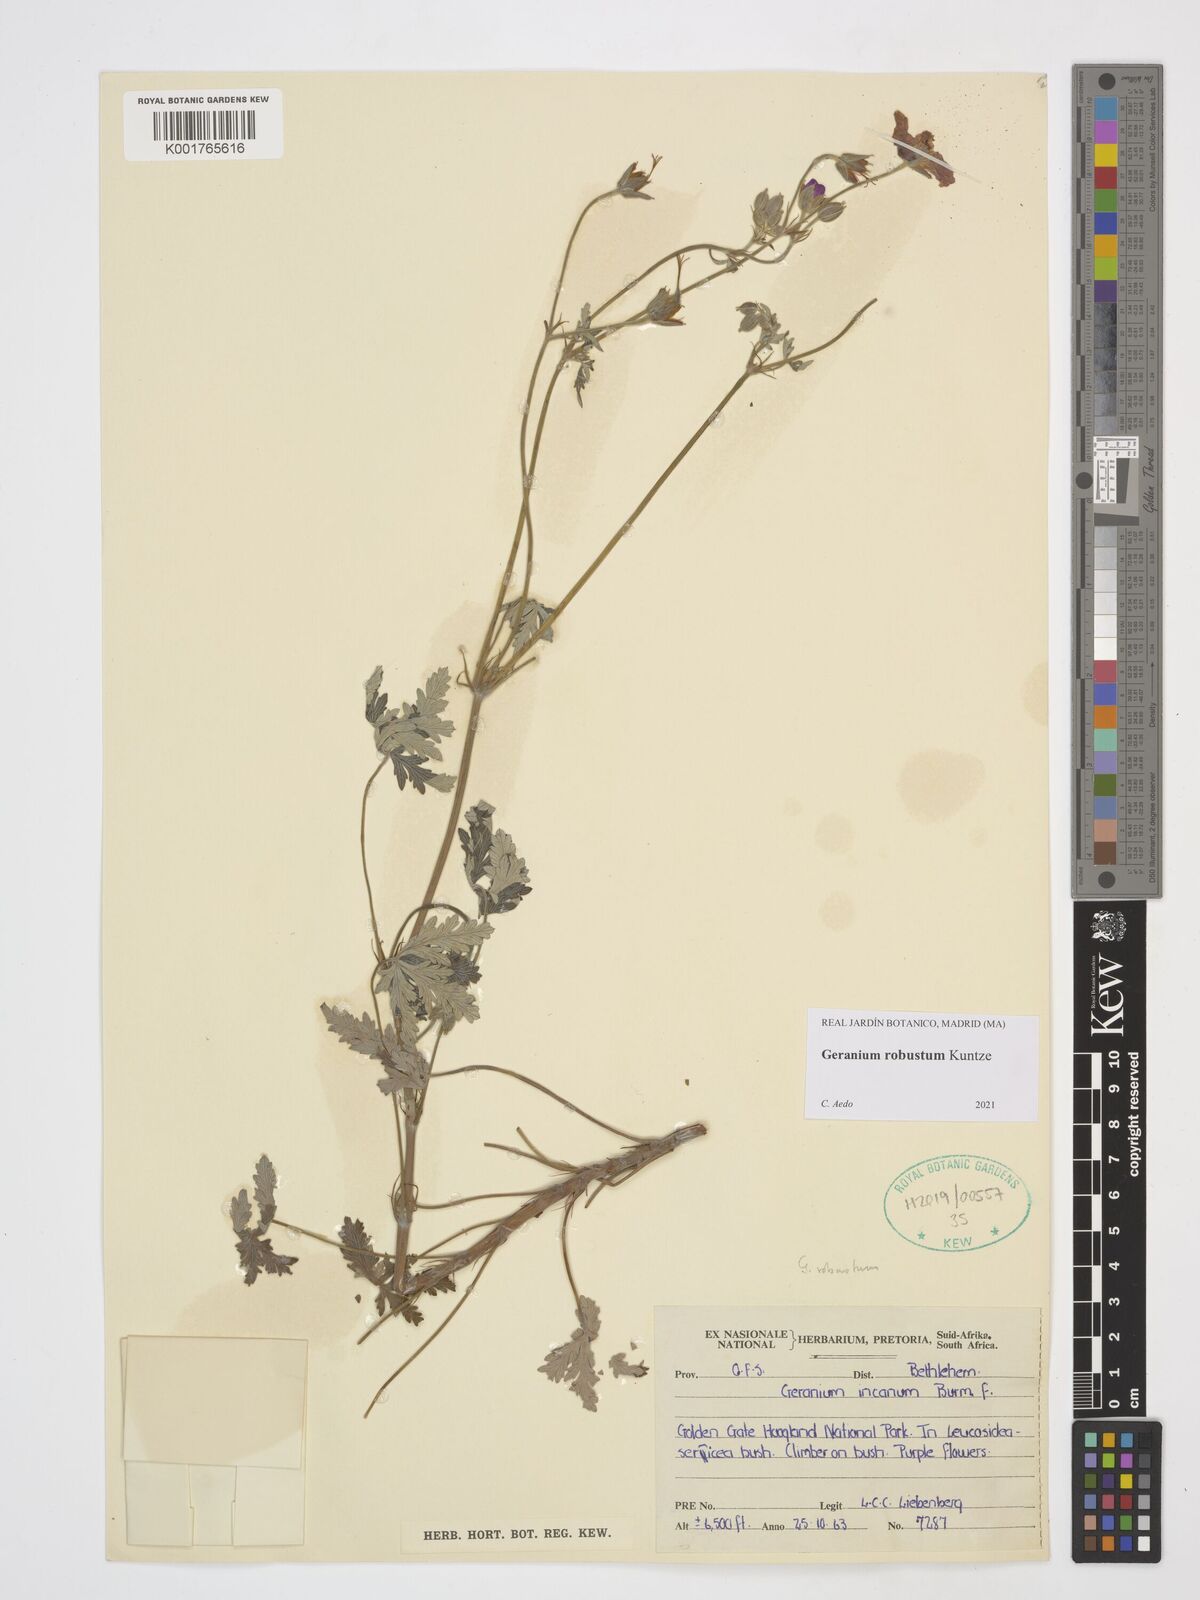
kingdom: Plantae
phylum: Tracheophyta
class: Magnoliopsida
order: Geraniales
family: Geraniaceae
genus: Geranium
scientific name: Geranium robustum
